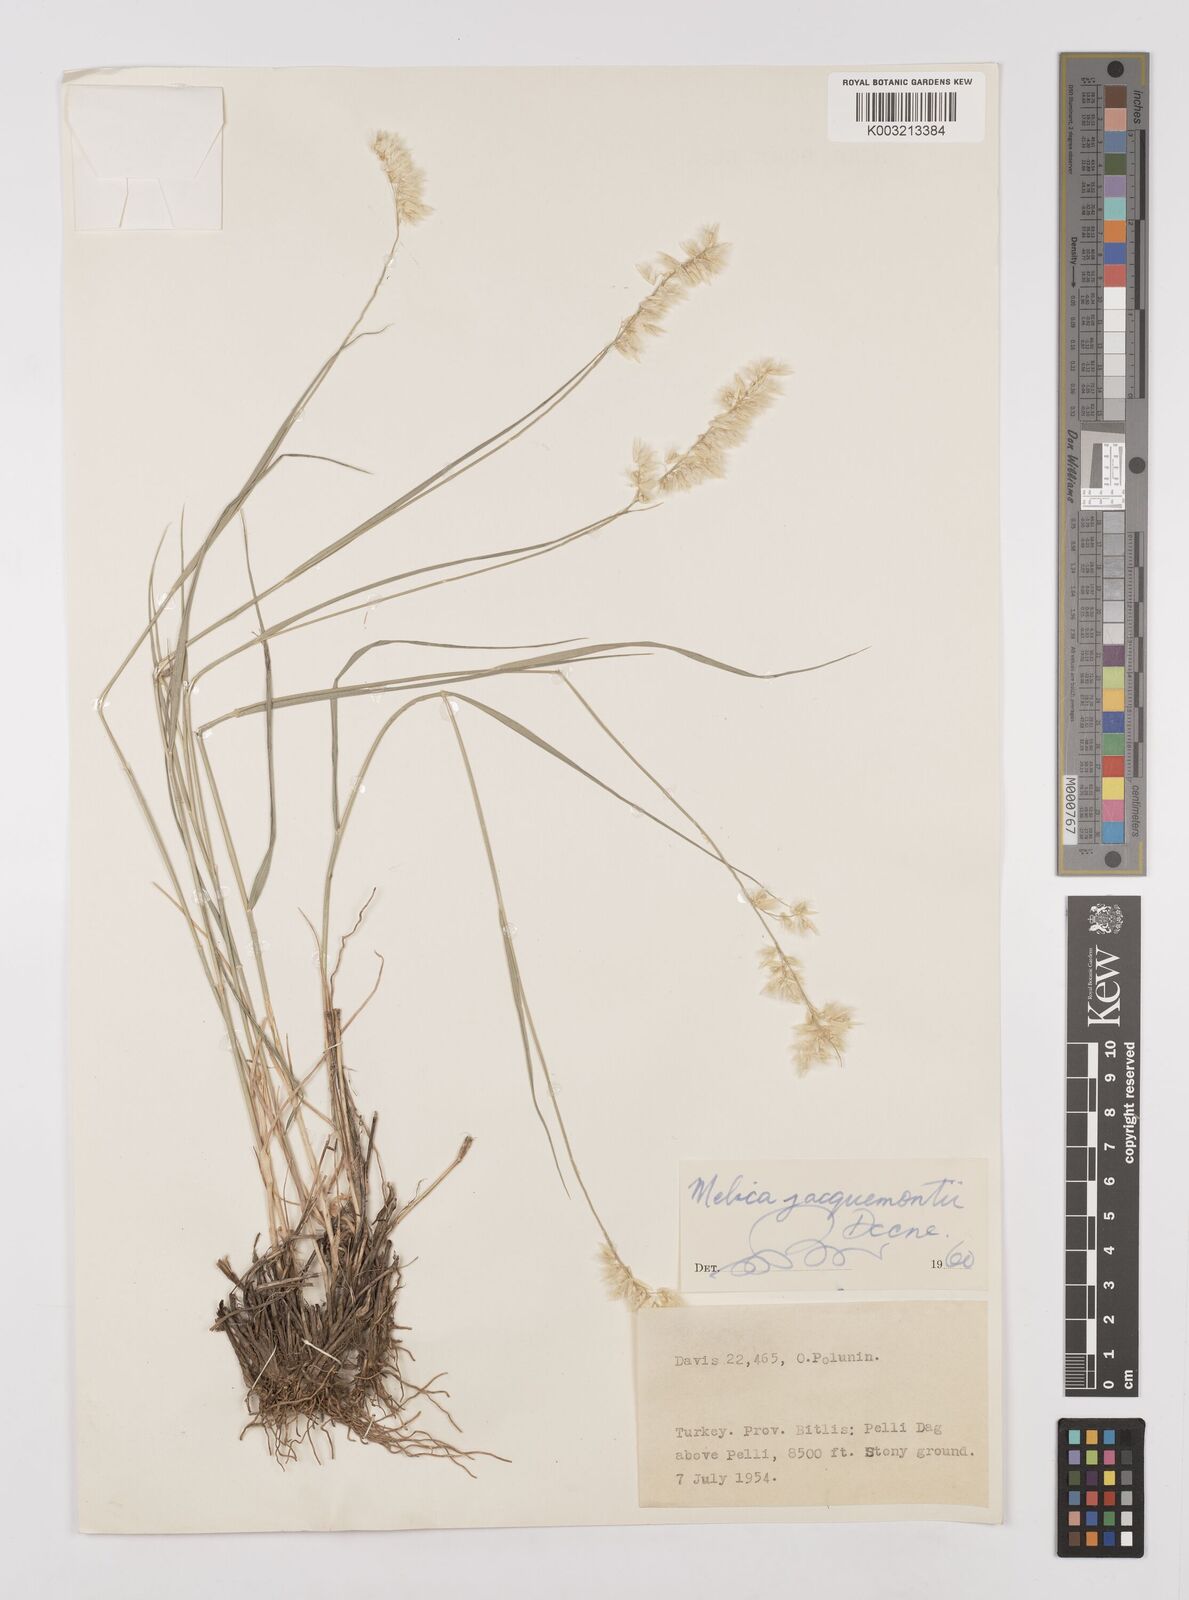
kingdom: Plantae
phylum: Tracheophyta
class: Liliopsida
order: Poales
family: Poaceae
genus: Melica
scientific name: Melica persica
